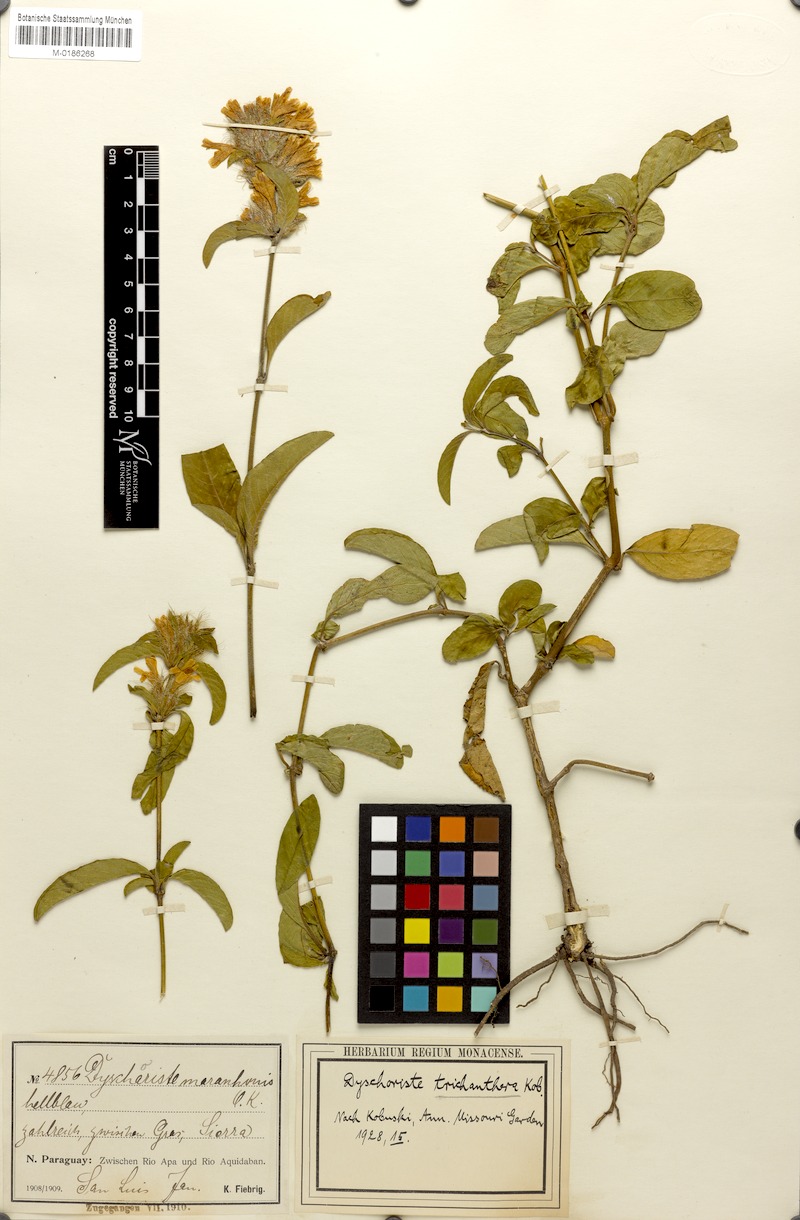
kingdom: Plantae
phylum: Tracheophyta
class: Magnoliopsida
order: Lamiales
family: Acanthaceae
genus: Dyschoriste
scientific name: Dyschoriste trichanthera
